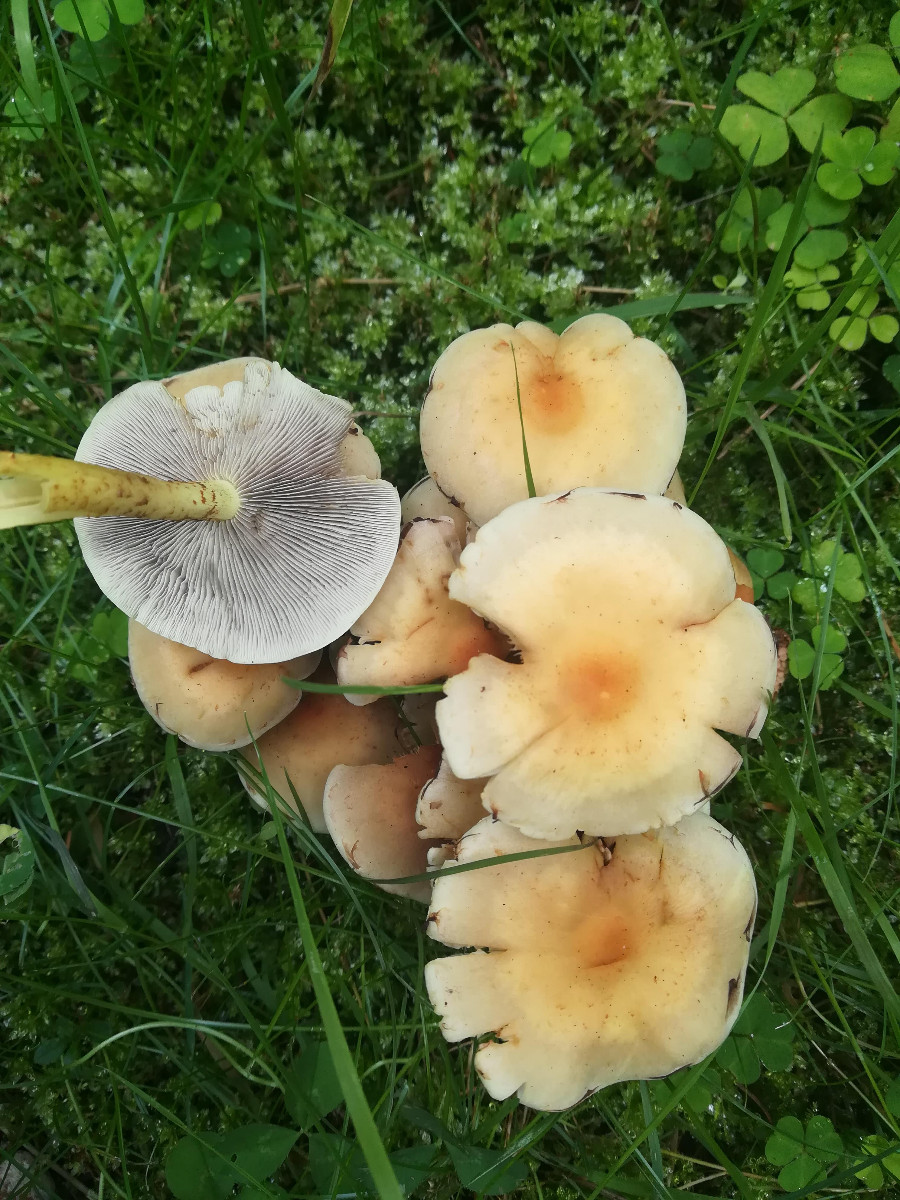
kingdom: Fungi
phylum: Basidiomycota
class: Agaricomycetes
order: Agaricales
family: Strophariaceae
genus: Hypholoma
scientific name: Hypholoma fasciculare
